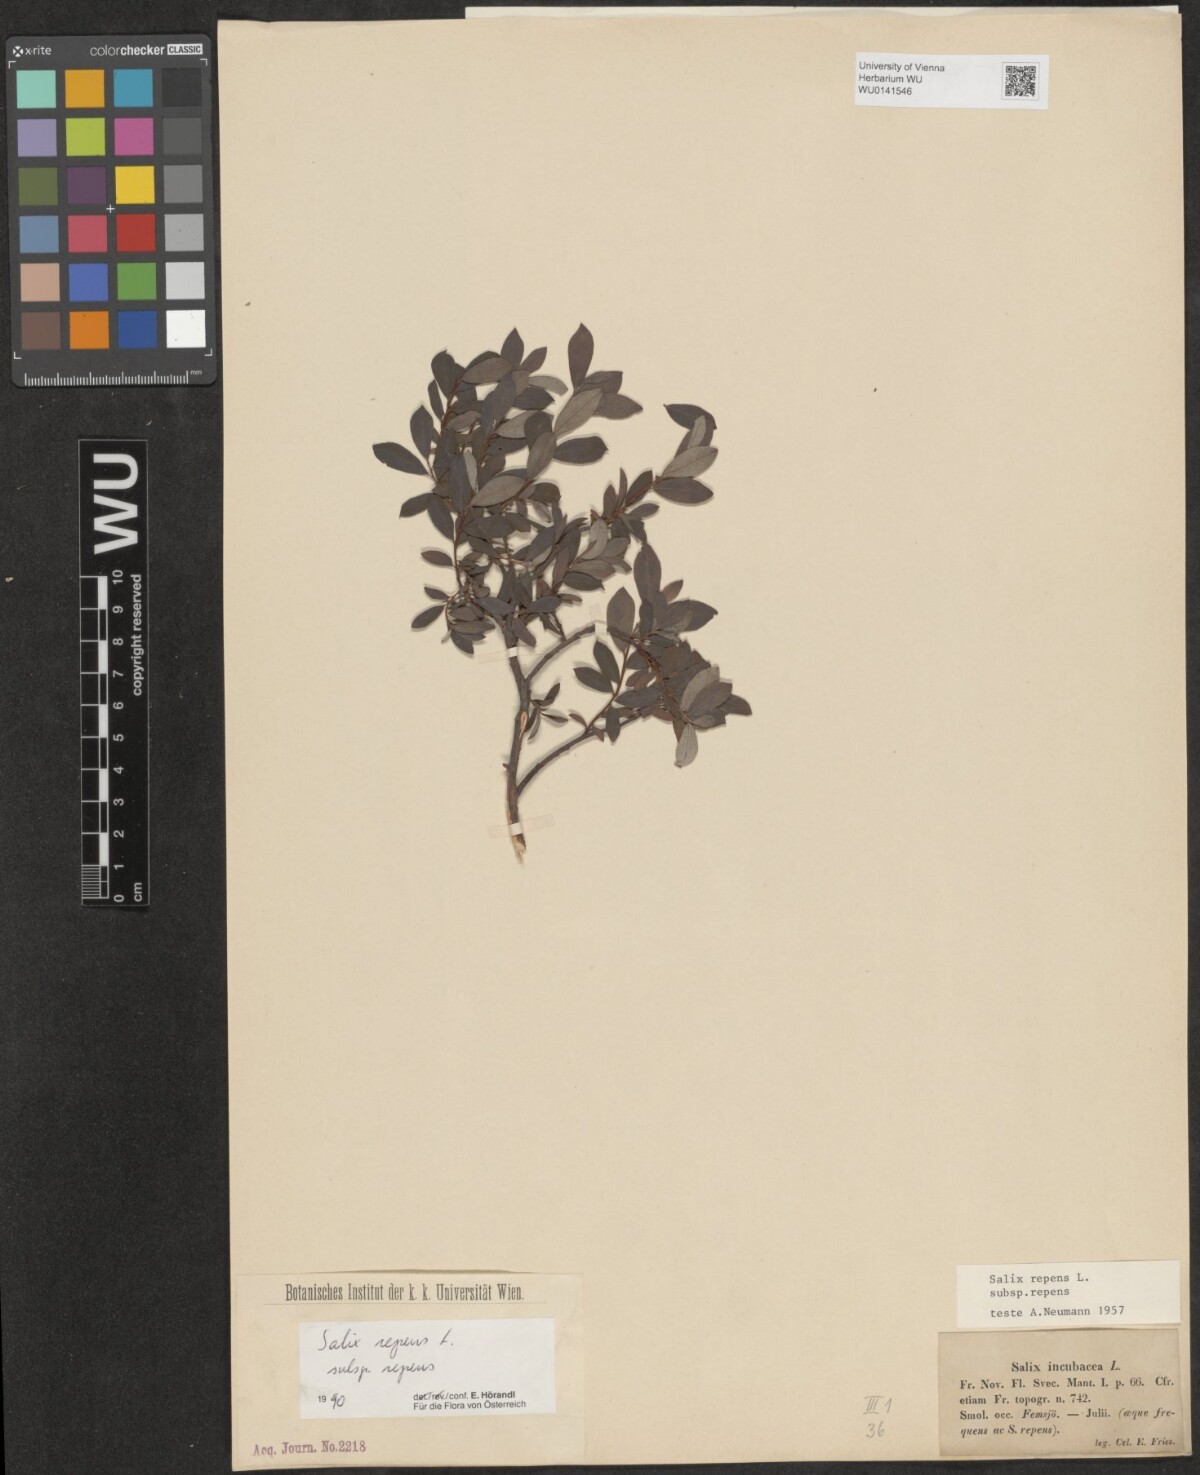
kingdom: Plantae
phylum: Tracheophyta
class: Magnoliopsida
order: Malpighiales
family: Salicaceae
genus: Salix
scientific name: Salix repens
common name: Creeping willow
